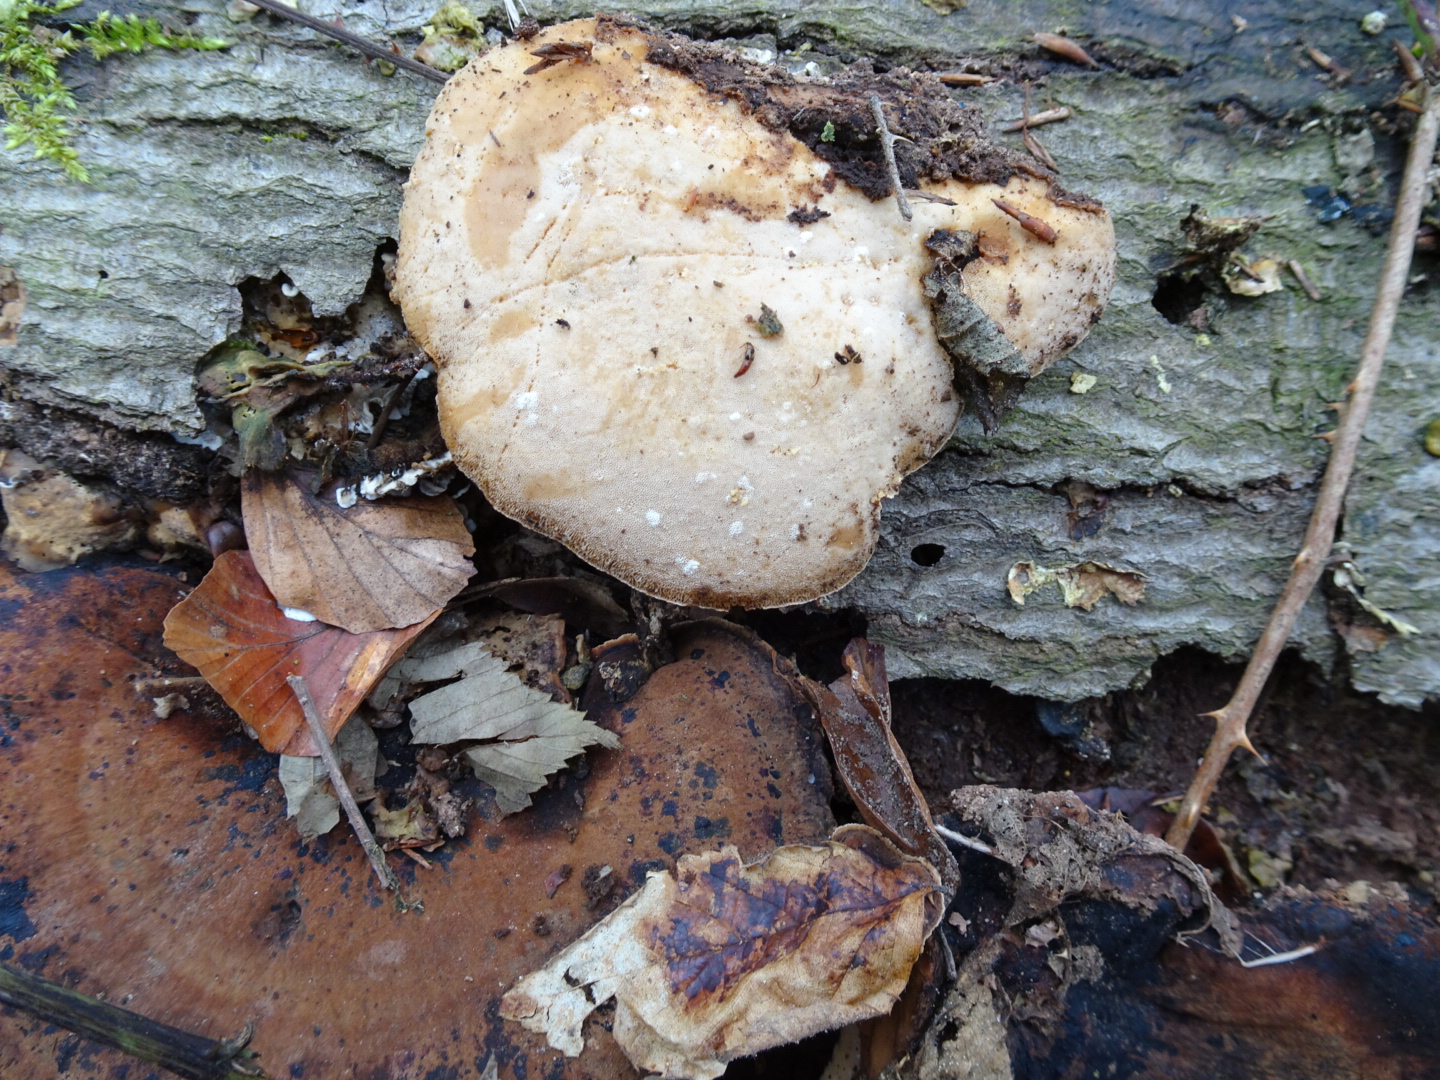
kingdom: Fungi
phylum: Basidiomycota
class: Agaricomycetes
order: Polyporales
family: Ischnodermataceae
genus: Ischnoderma
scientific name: Ischnoderma resinosum
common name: løv-tjæreporesvamp
